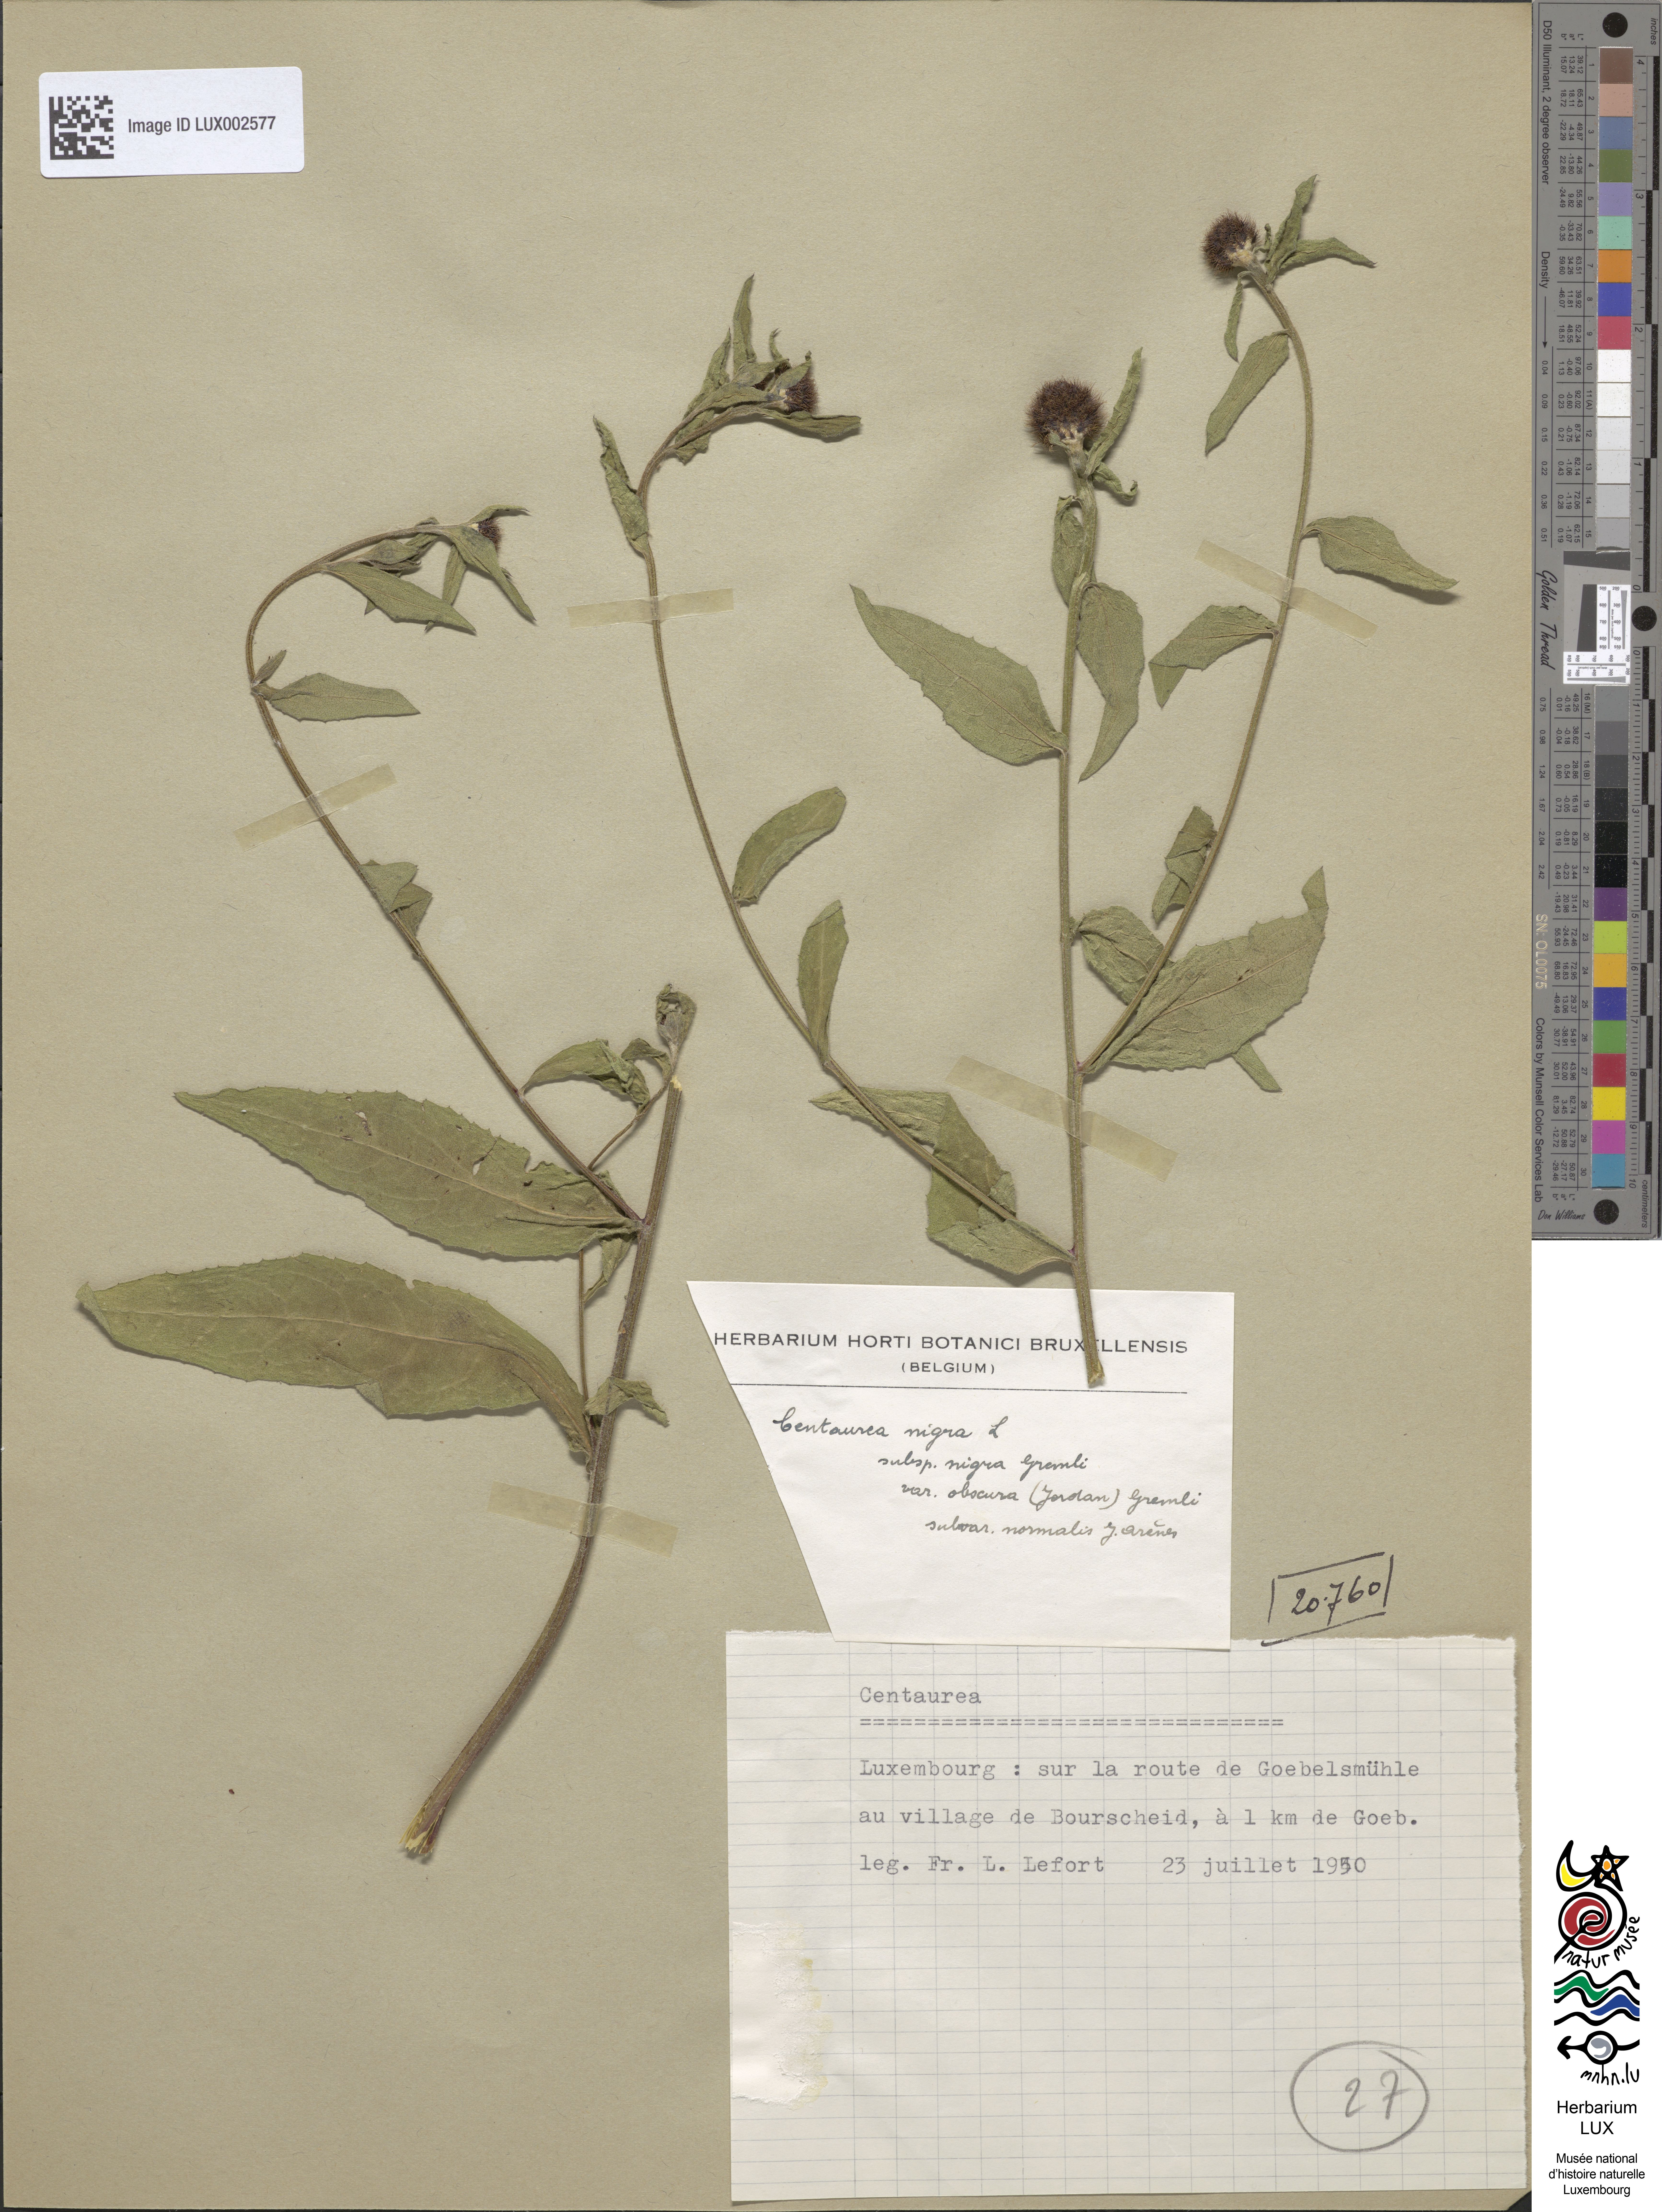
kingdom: Plantae
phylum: Tracheophyta
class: Magnoliopsida
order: Asterales
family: Asteraceae
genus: Centaurea
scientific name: Centaurea nigra
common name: Lesser knapweed
